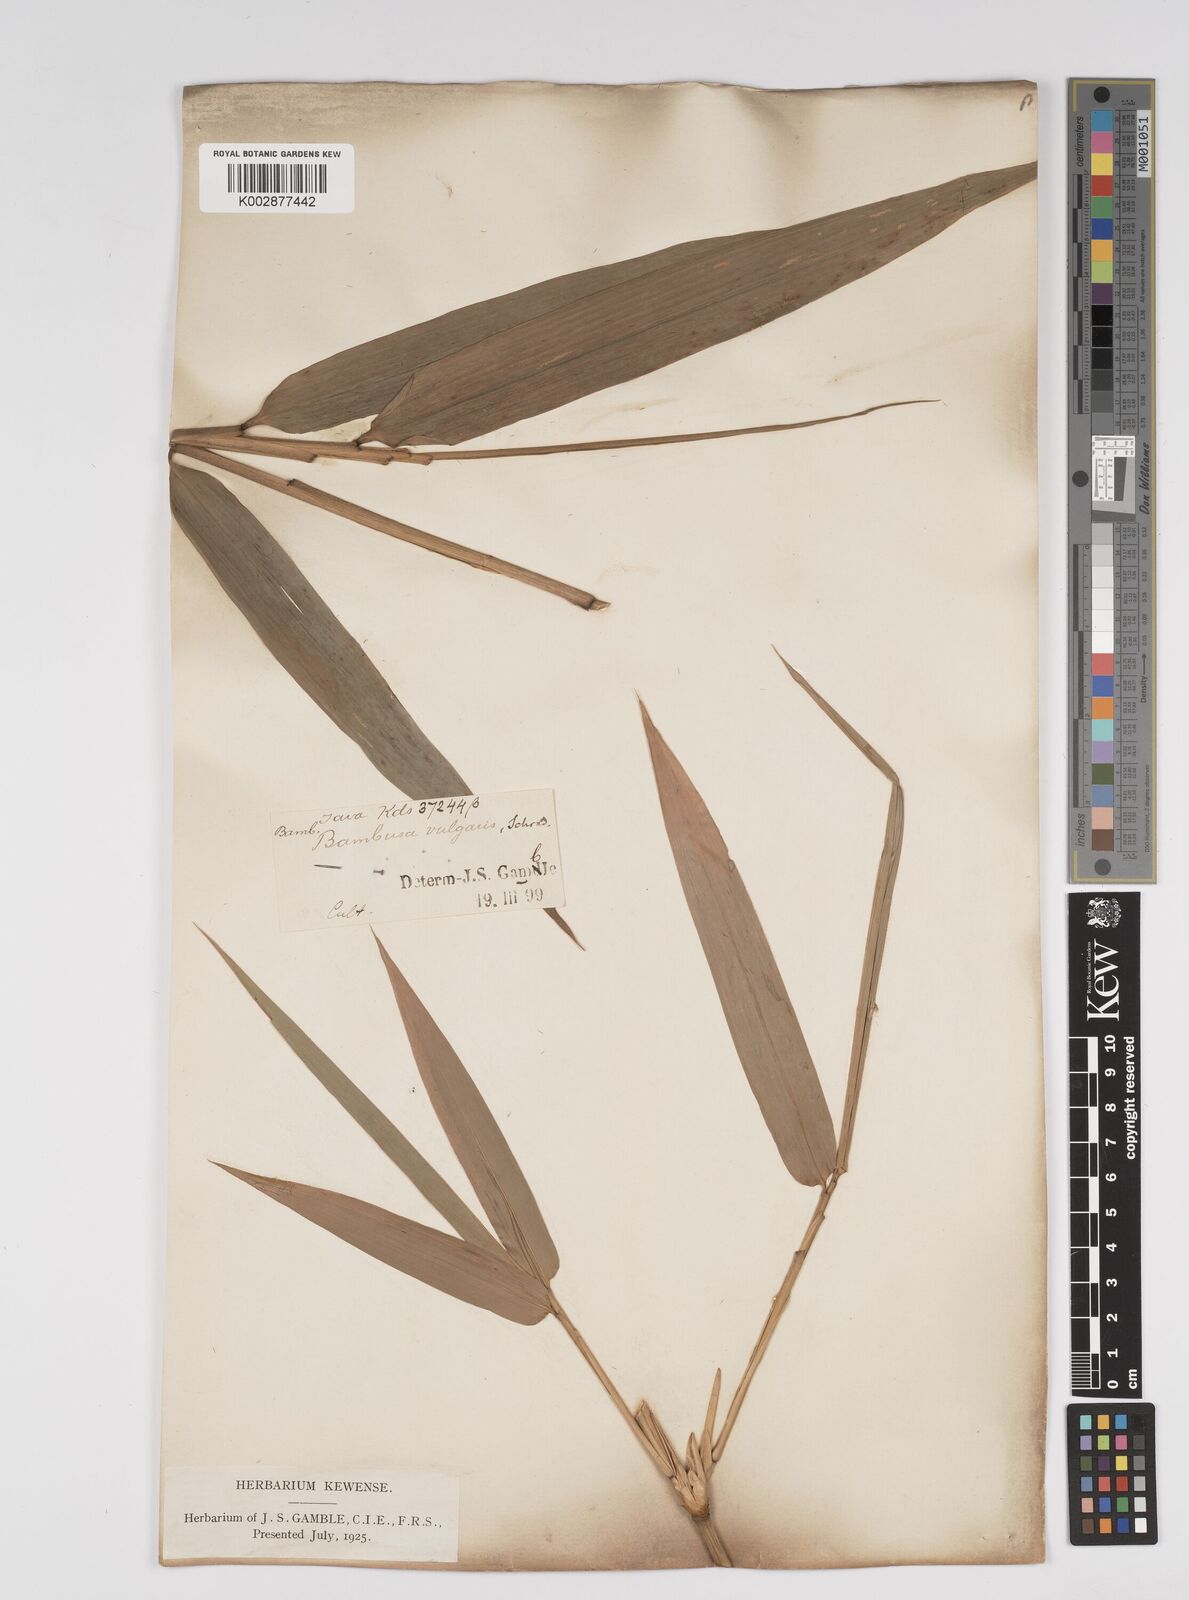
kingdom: Plantae
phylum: Tracheophyta
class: Liliopsida
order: Poales
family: Poaceae
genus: Bambusa
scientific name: Bambusa vulgaris
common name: Common bamboo
